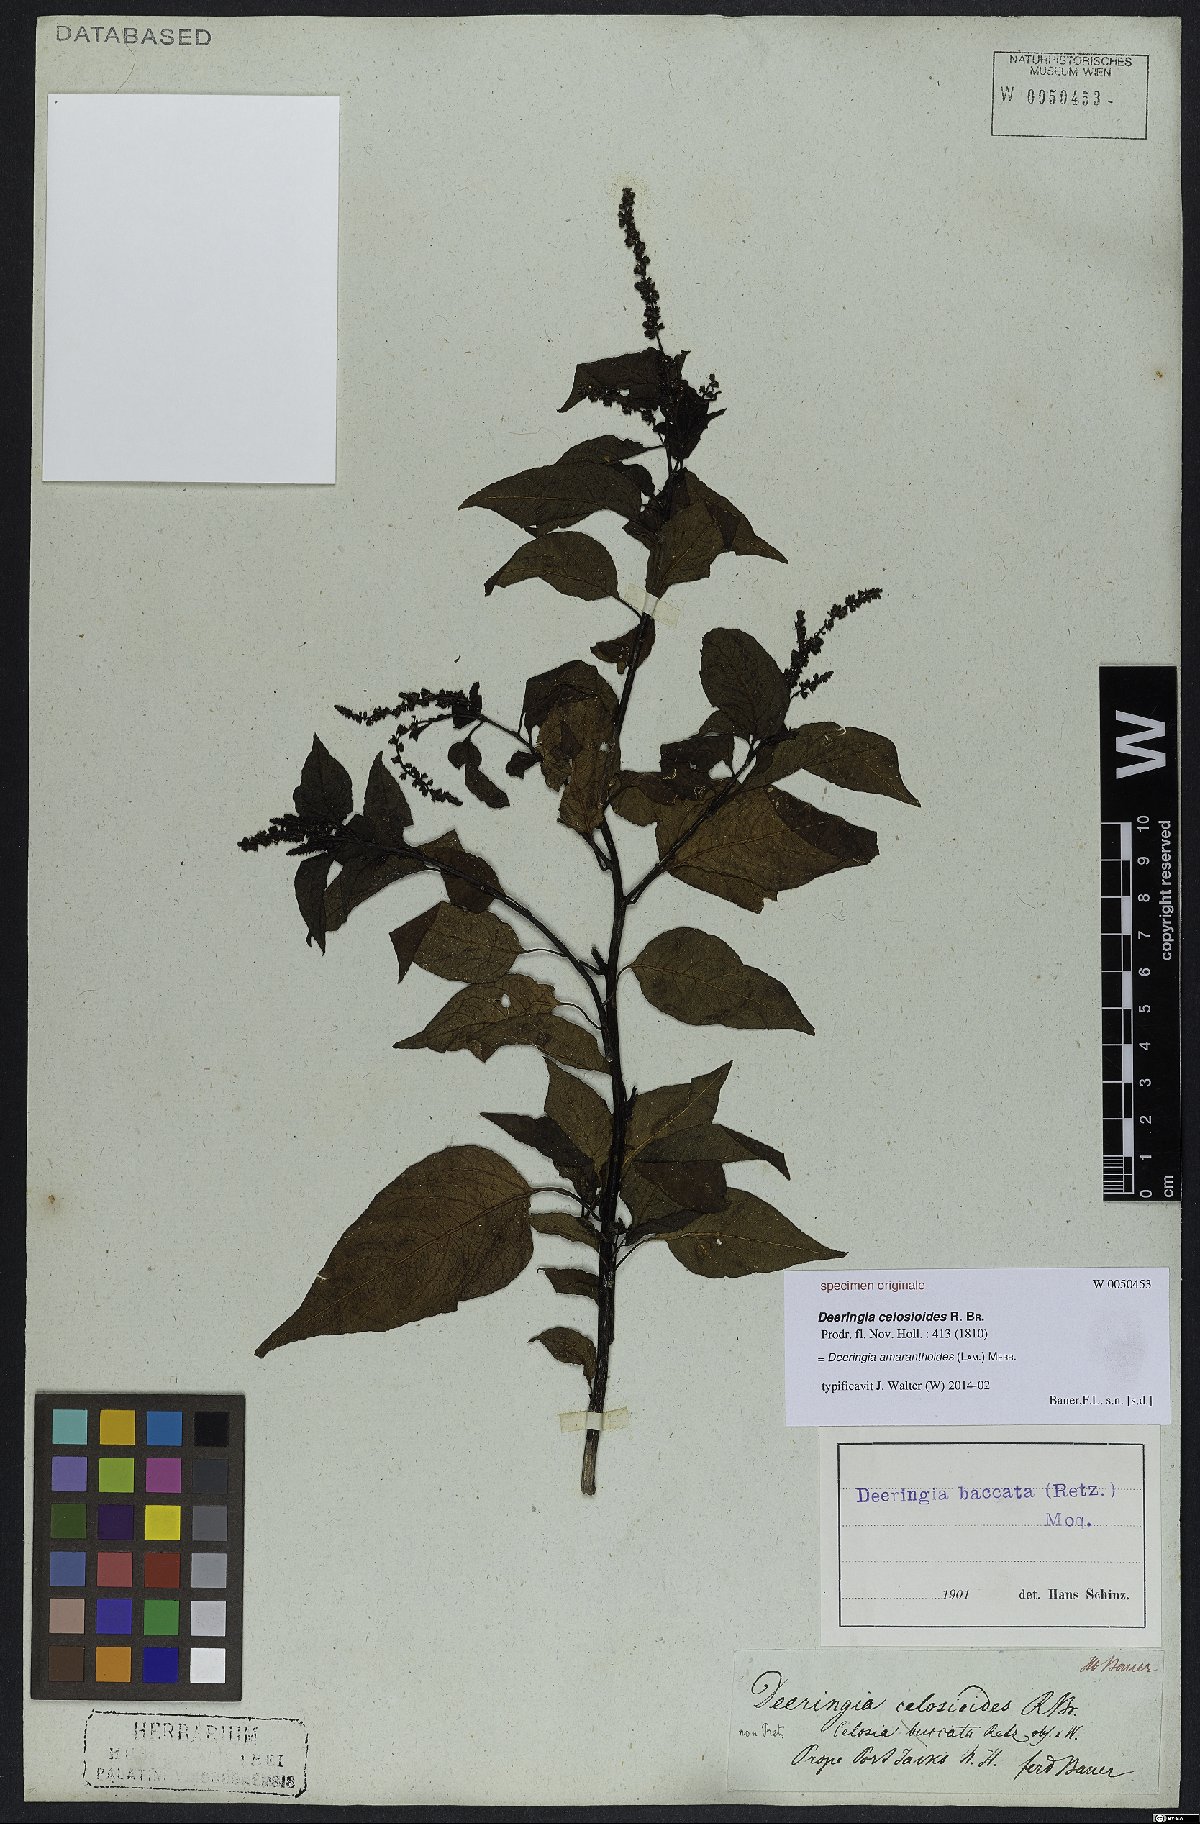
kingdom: Plantae
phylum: Tracheophyta
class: Magnoliopsida
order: Caryophyllales
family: Amaranthaceae
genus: Deeringia
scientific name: Deeringia amaranthoides
